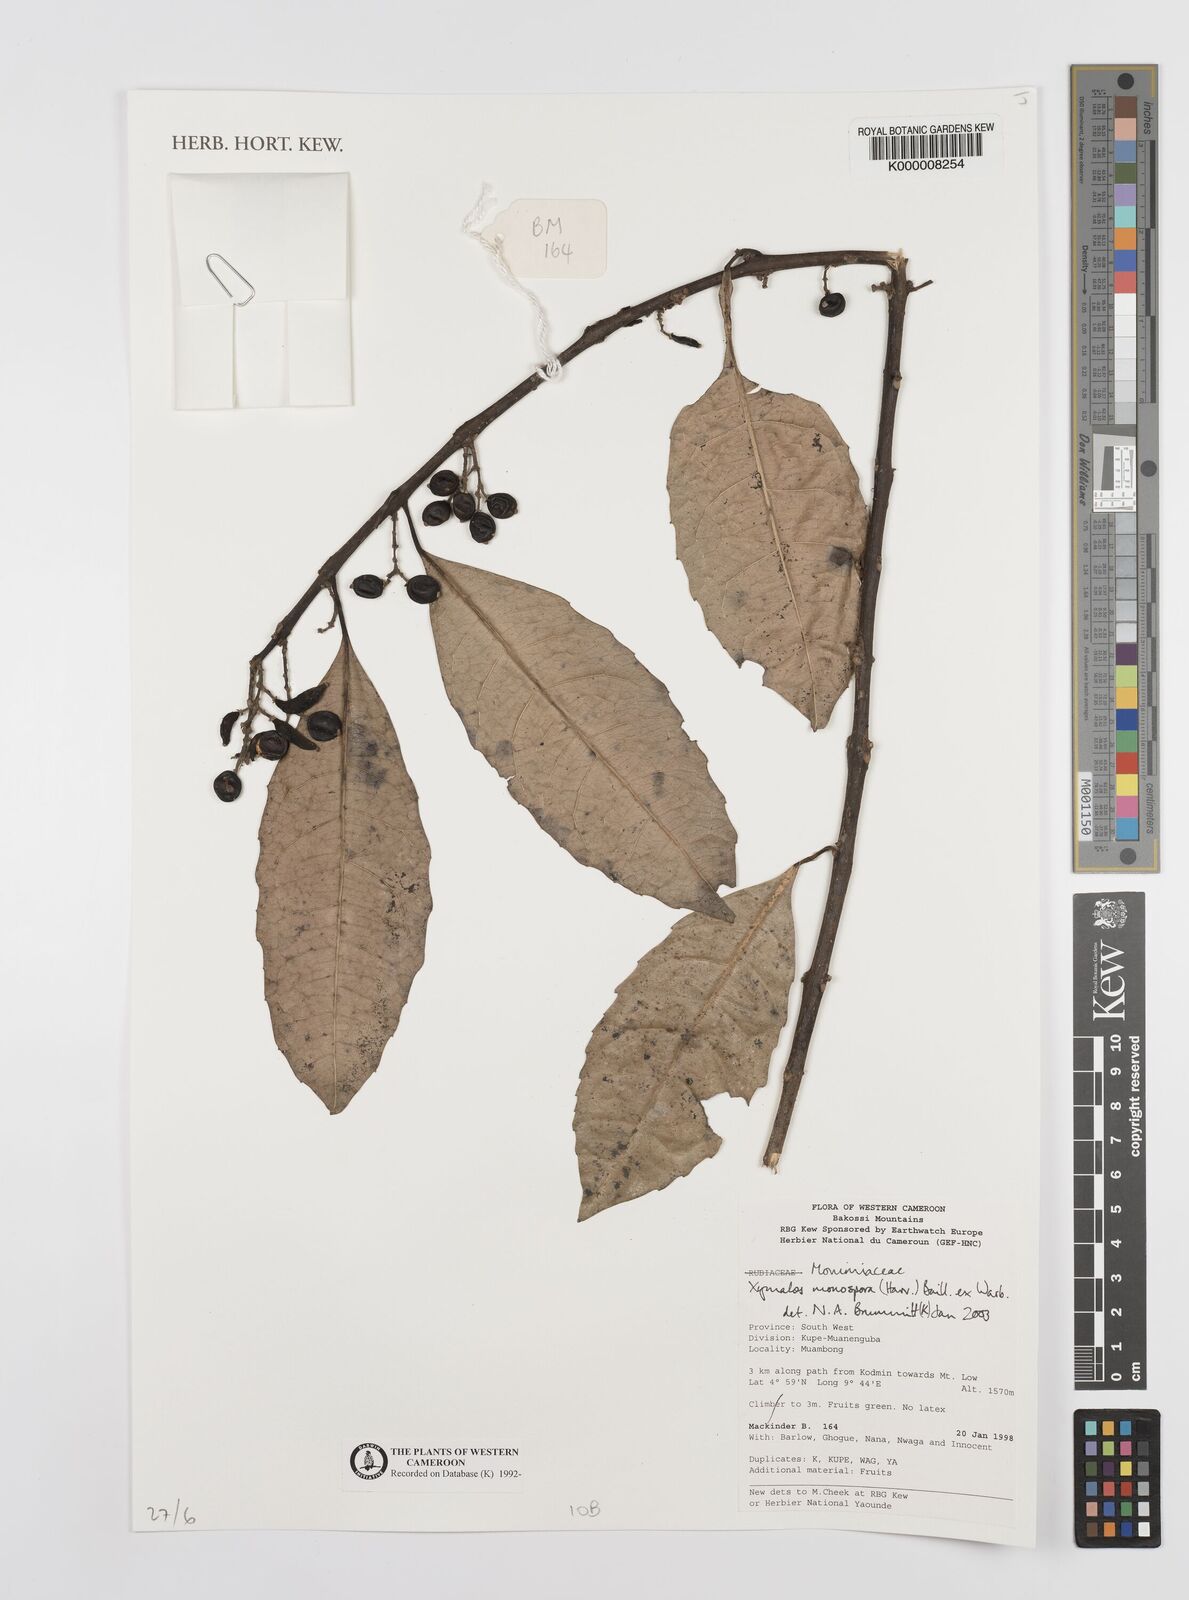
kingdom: Plantae
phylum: Tracheophyta
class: Magnoliopsida
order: Laurales
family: Monimiaceae
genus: Xymalos
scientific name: Xymalos
